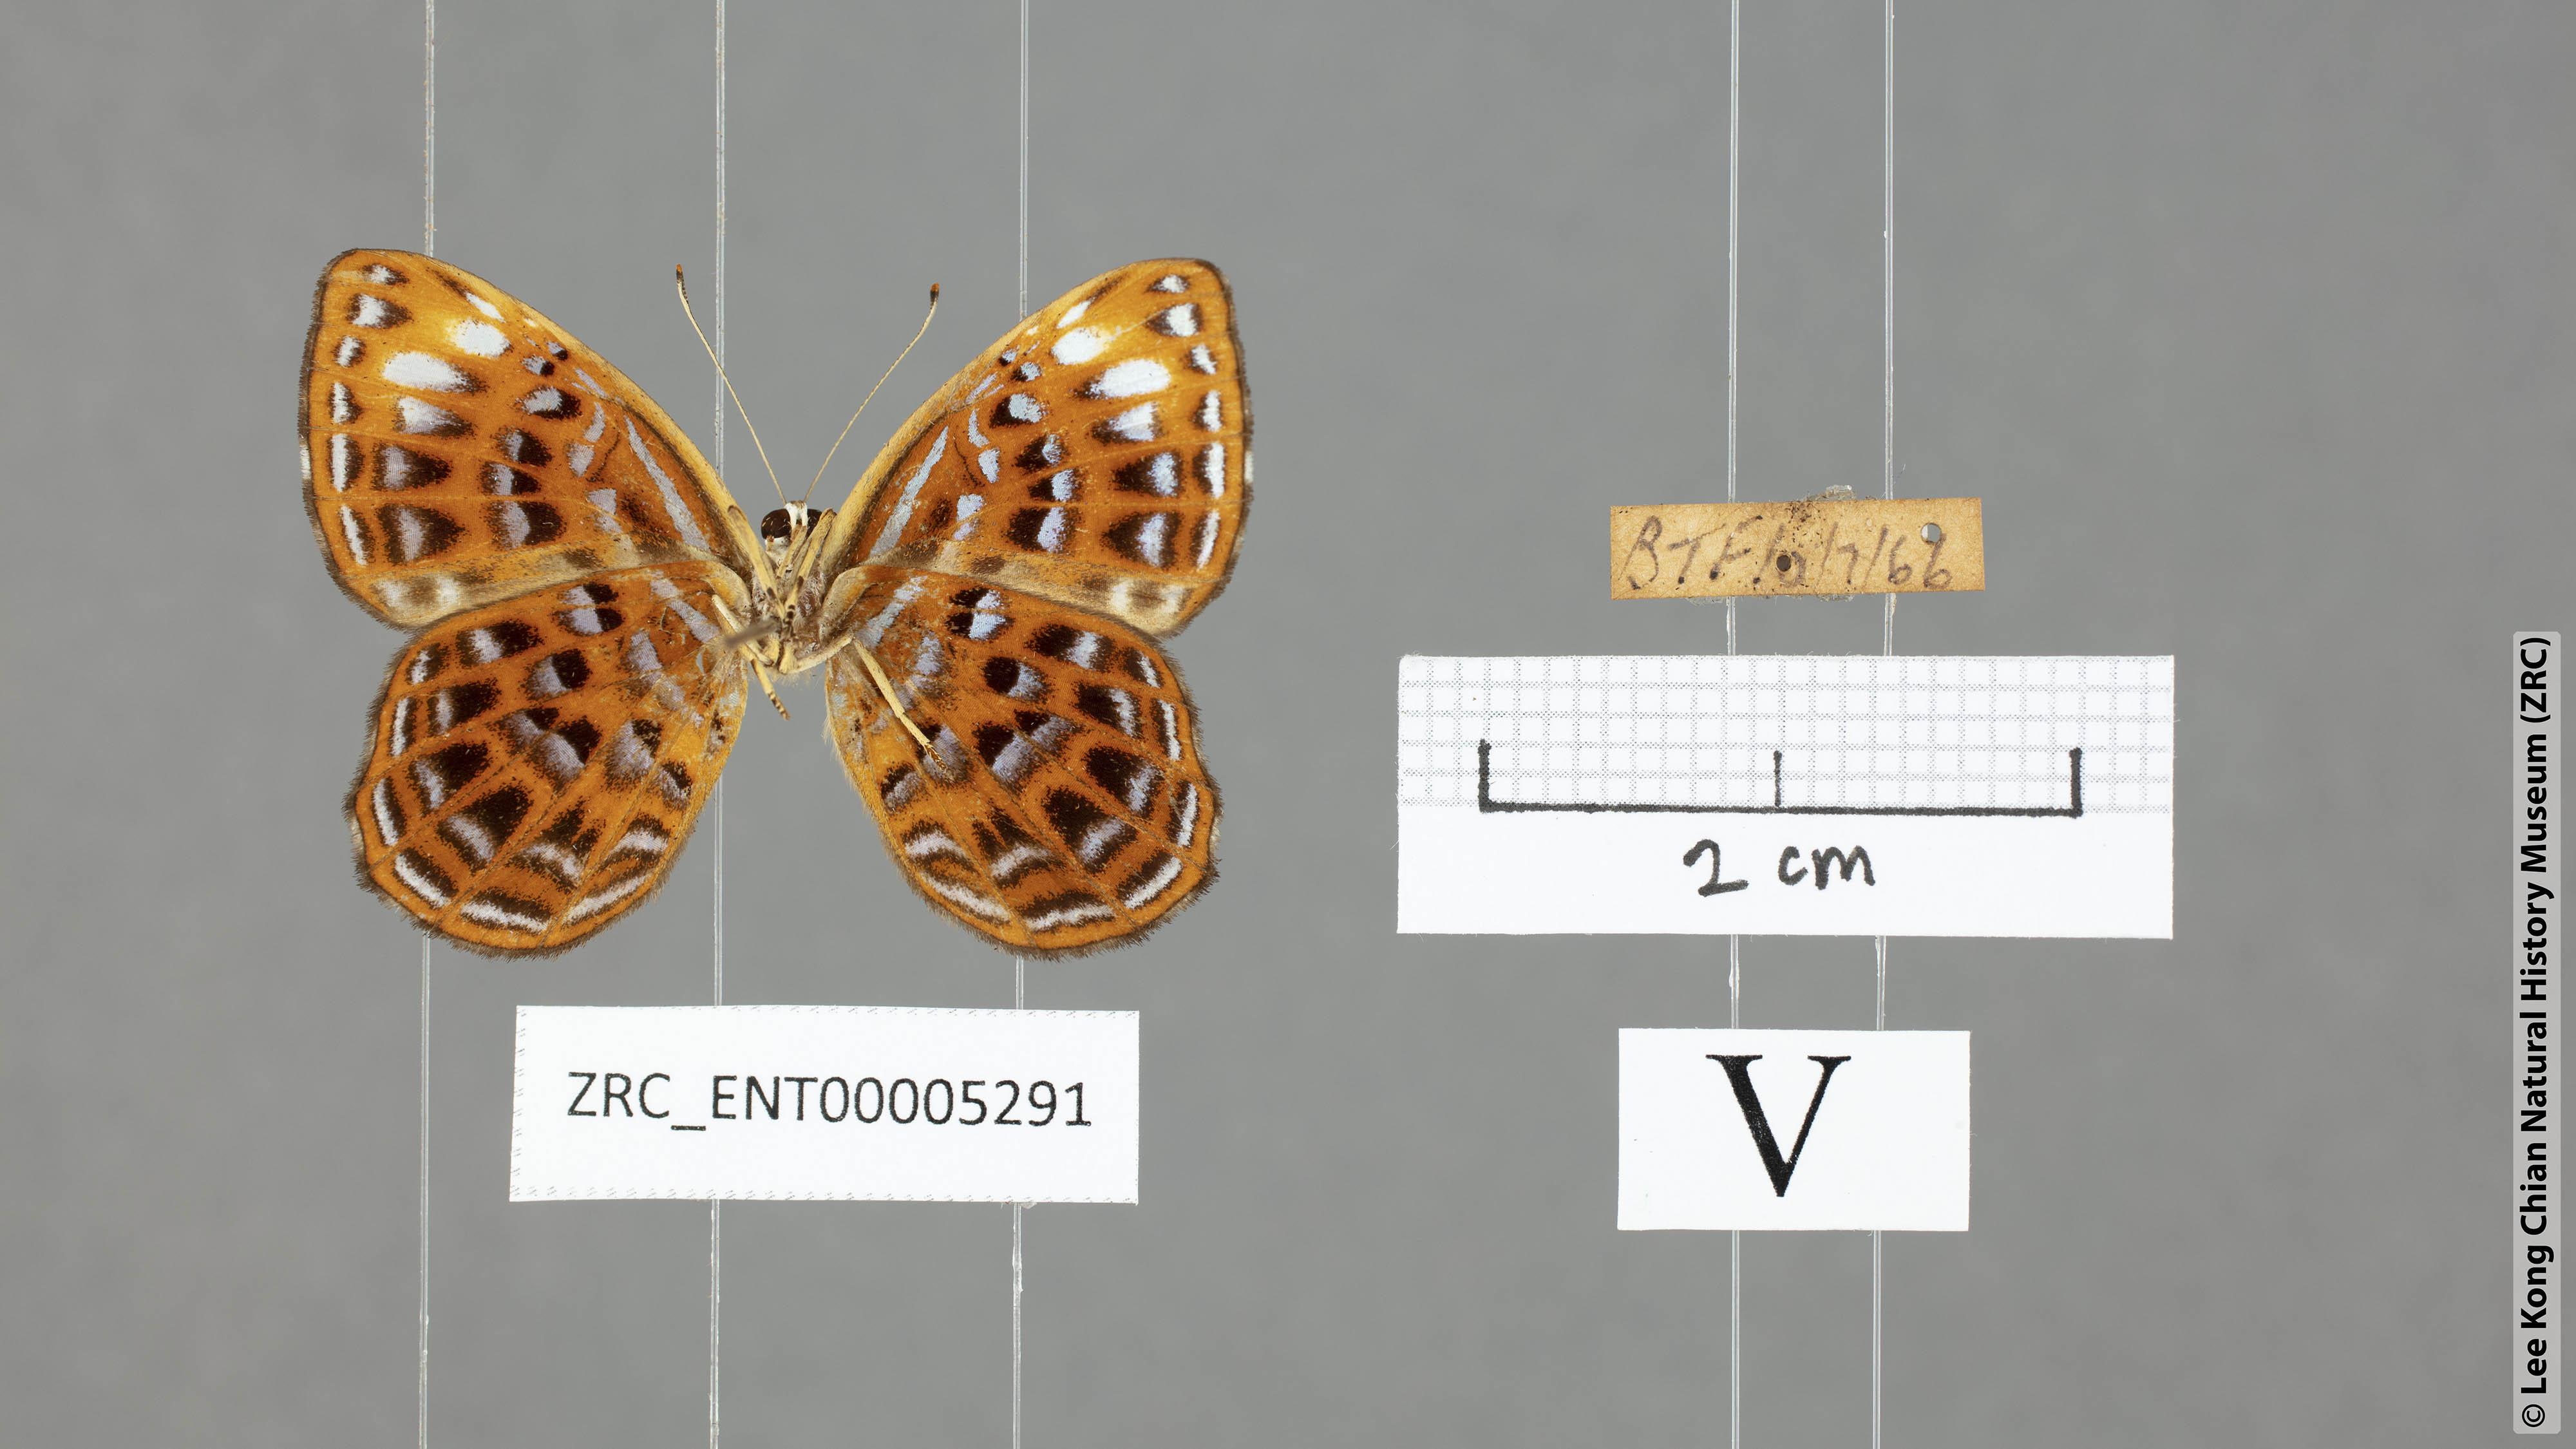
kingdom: Animalia
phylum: Arthropoda
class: Insecta
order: Lepidoptera
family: Riodinidae
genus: Laxita
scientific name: Laxita thuisto
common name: Lesser harlequin
